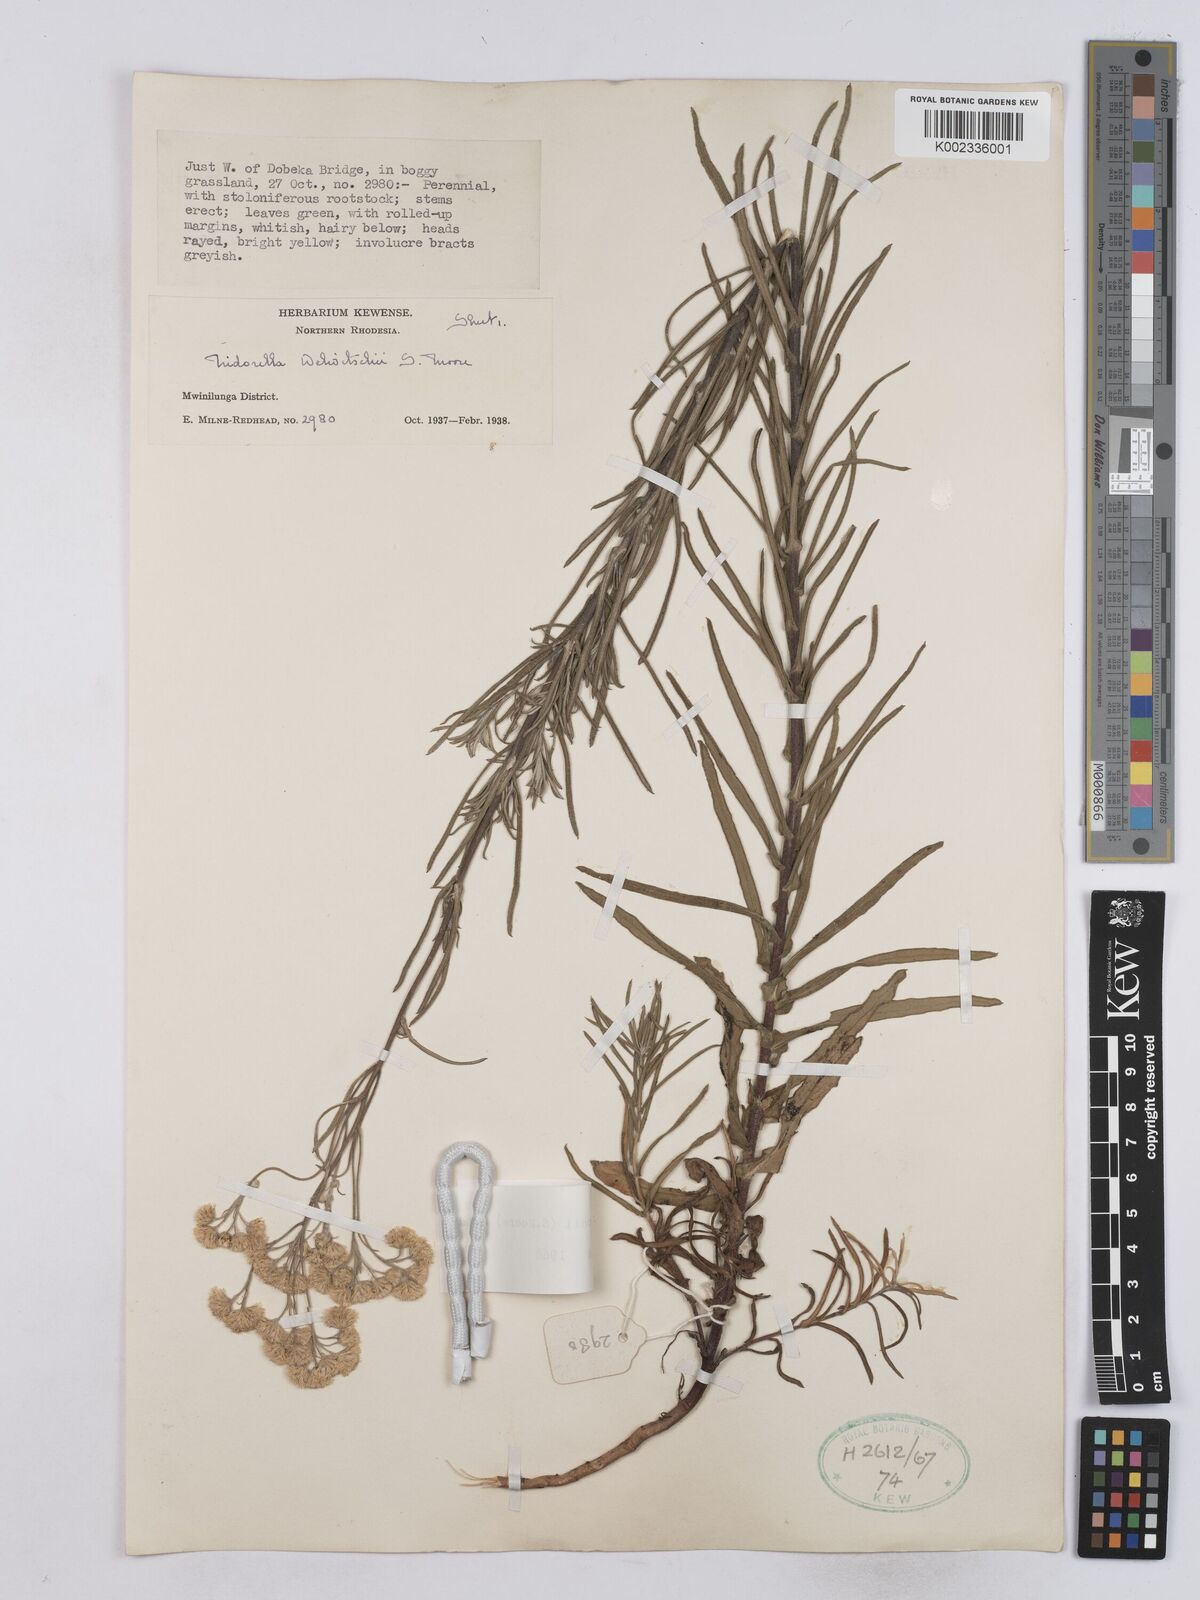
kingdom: Plantae
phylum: Tracheophyta
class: Magnoliopsida
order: Asterales
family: Asteraceae
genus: Nidorella
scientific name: Nidorella welwitschii
